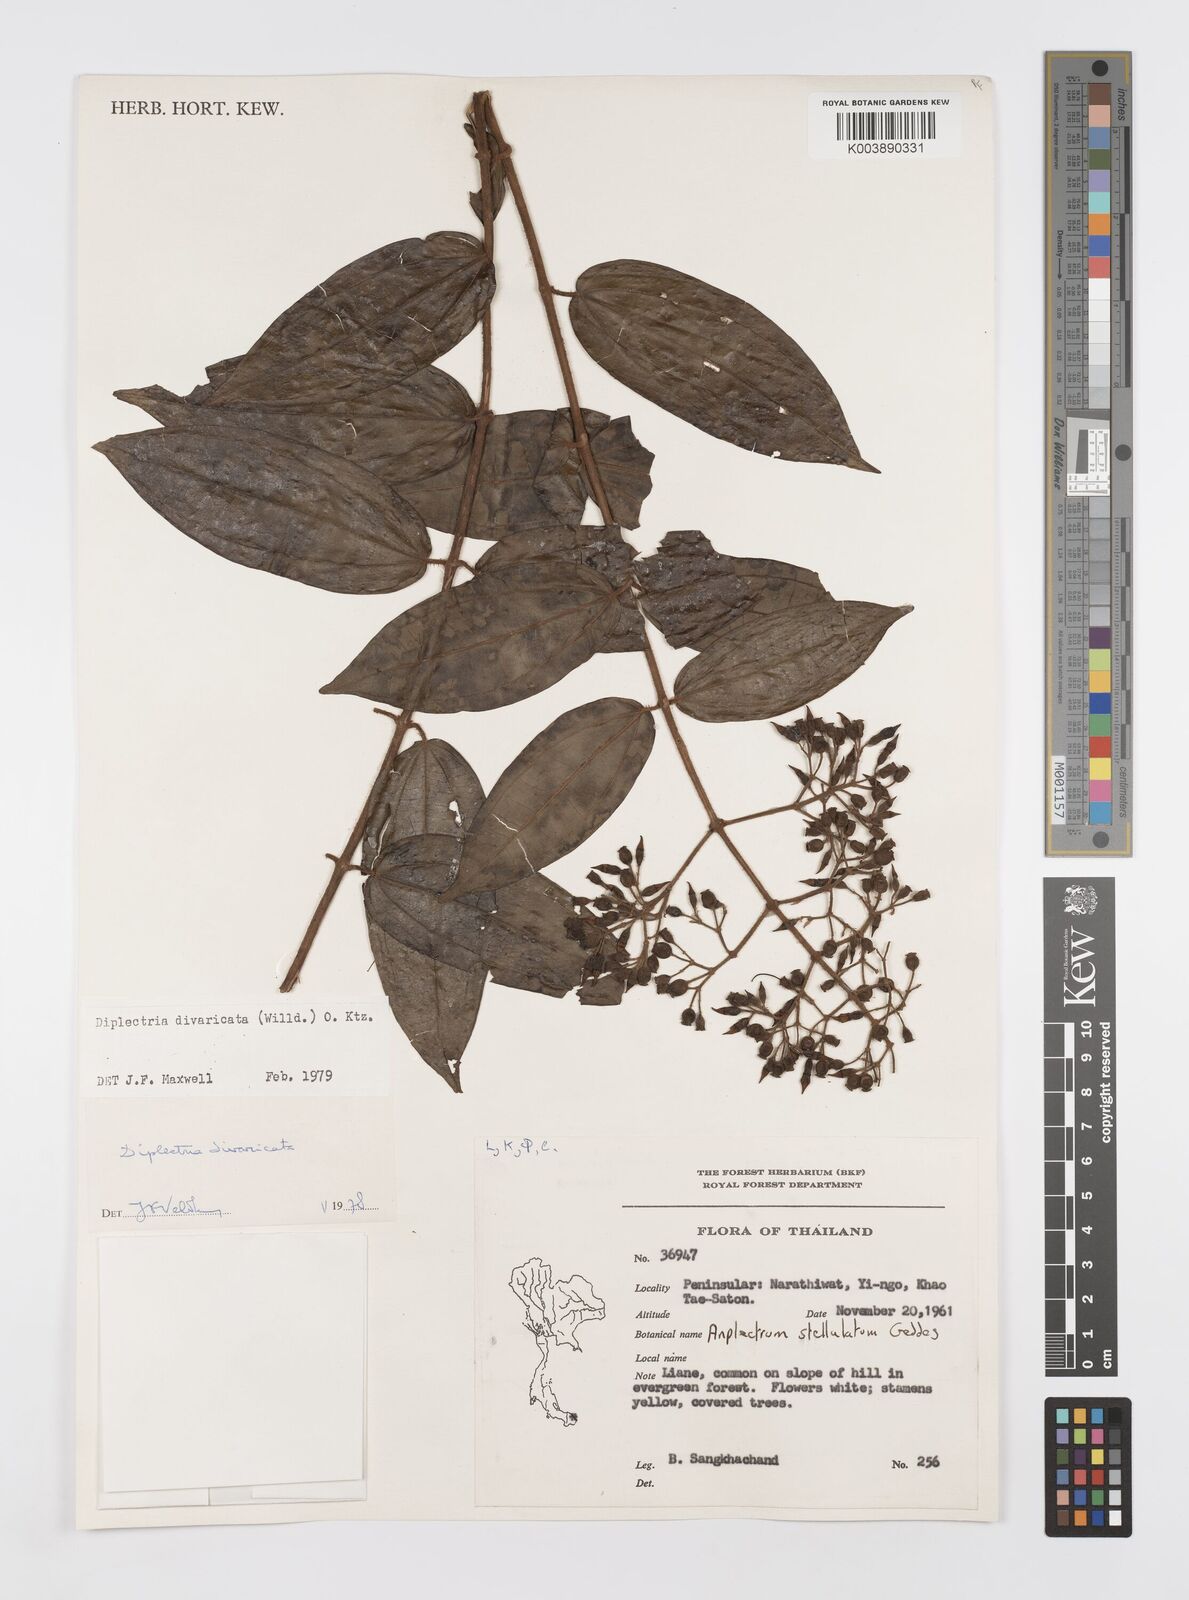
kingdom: Plantae
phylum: Tracheophyta
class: Magnoliopsida
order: Myrtales
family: Melastomataceae
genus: Diplectria
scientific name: Diplectria divaricata
